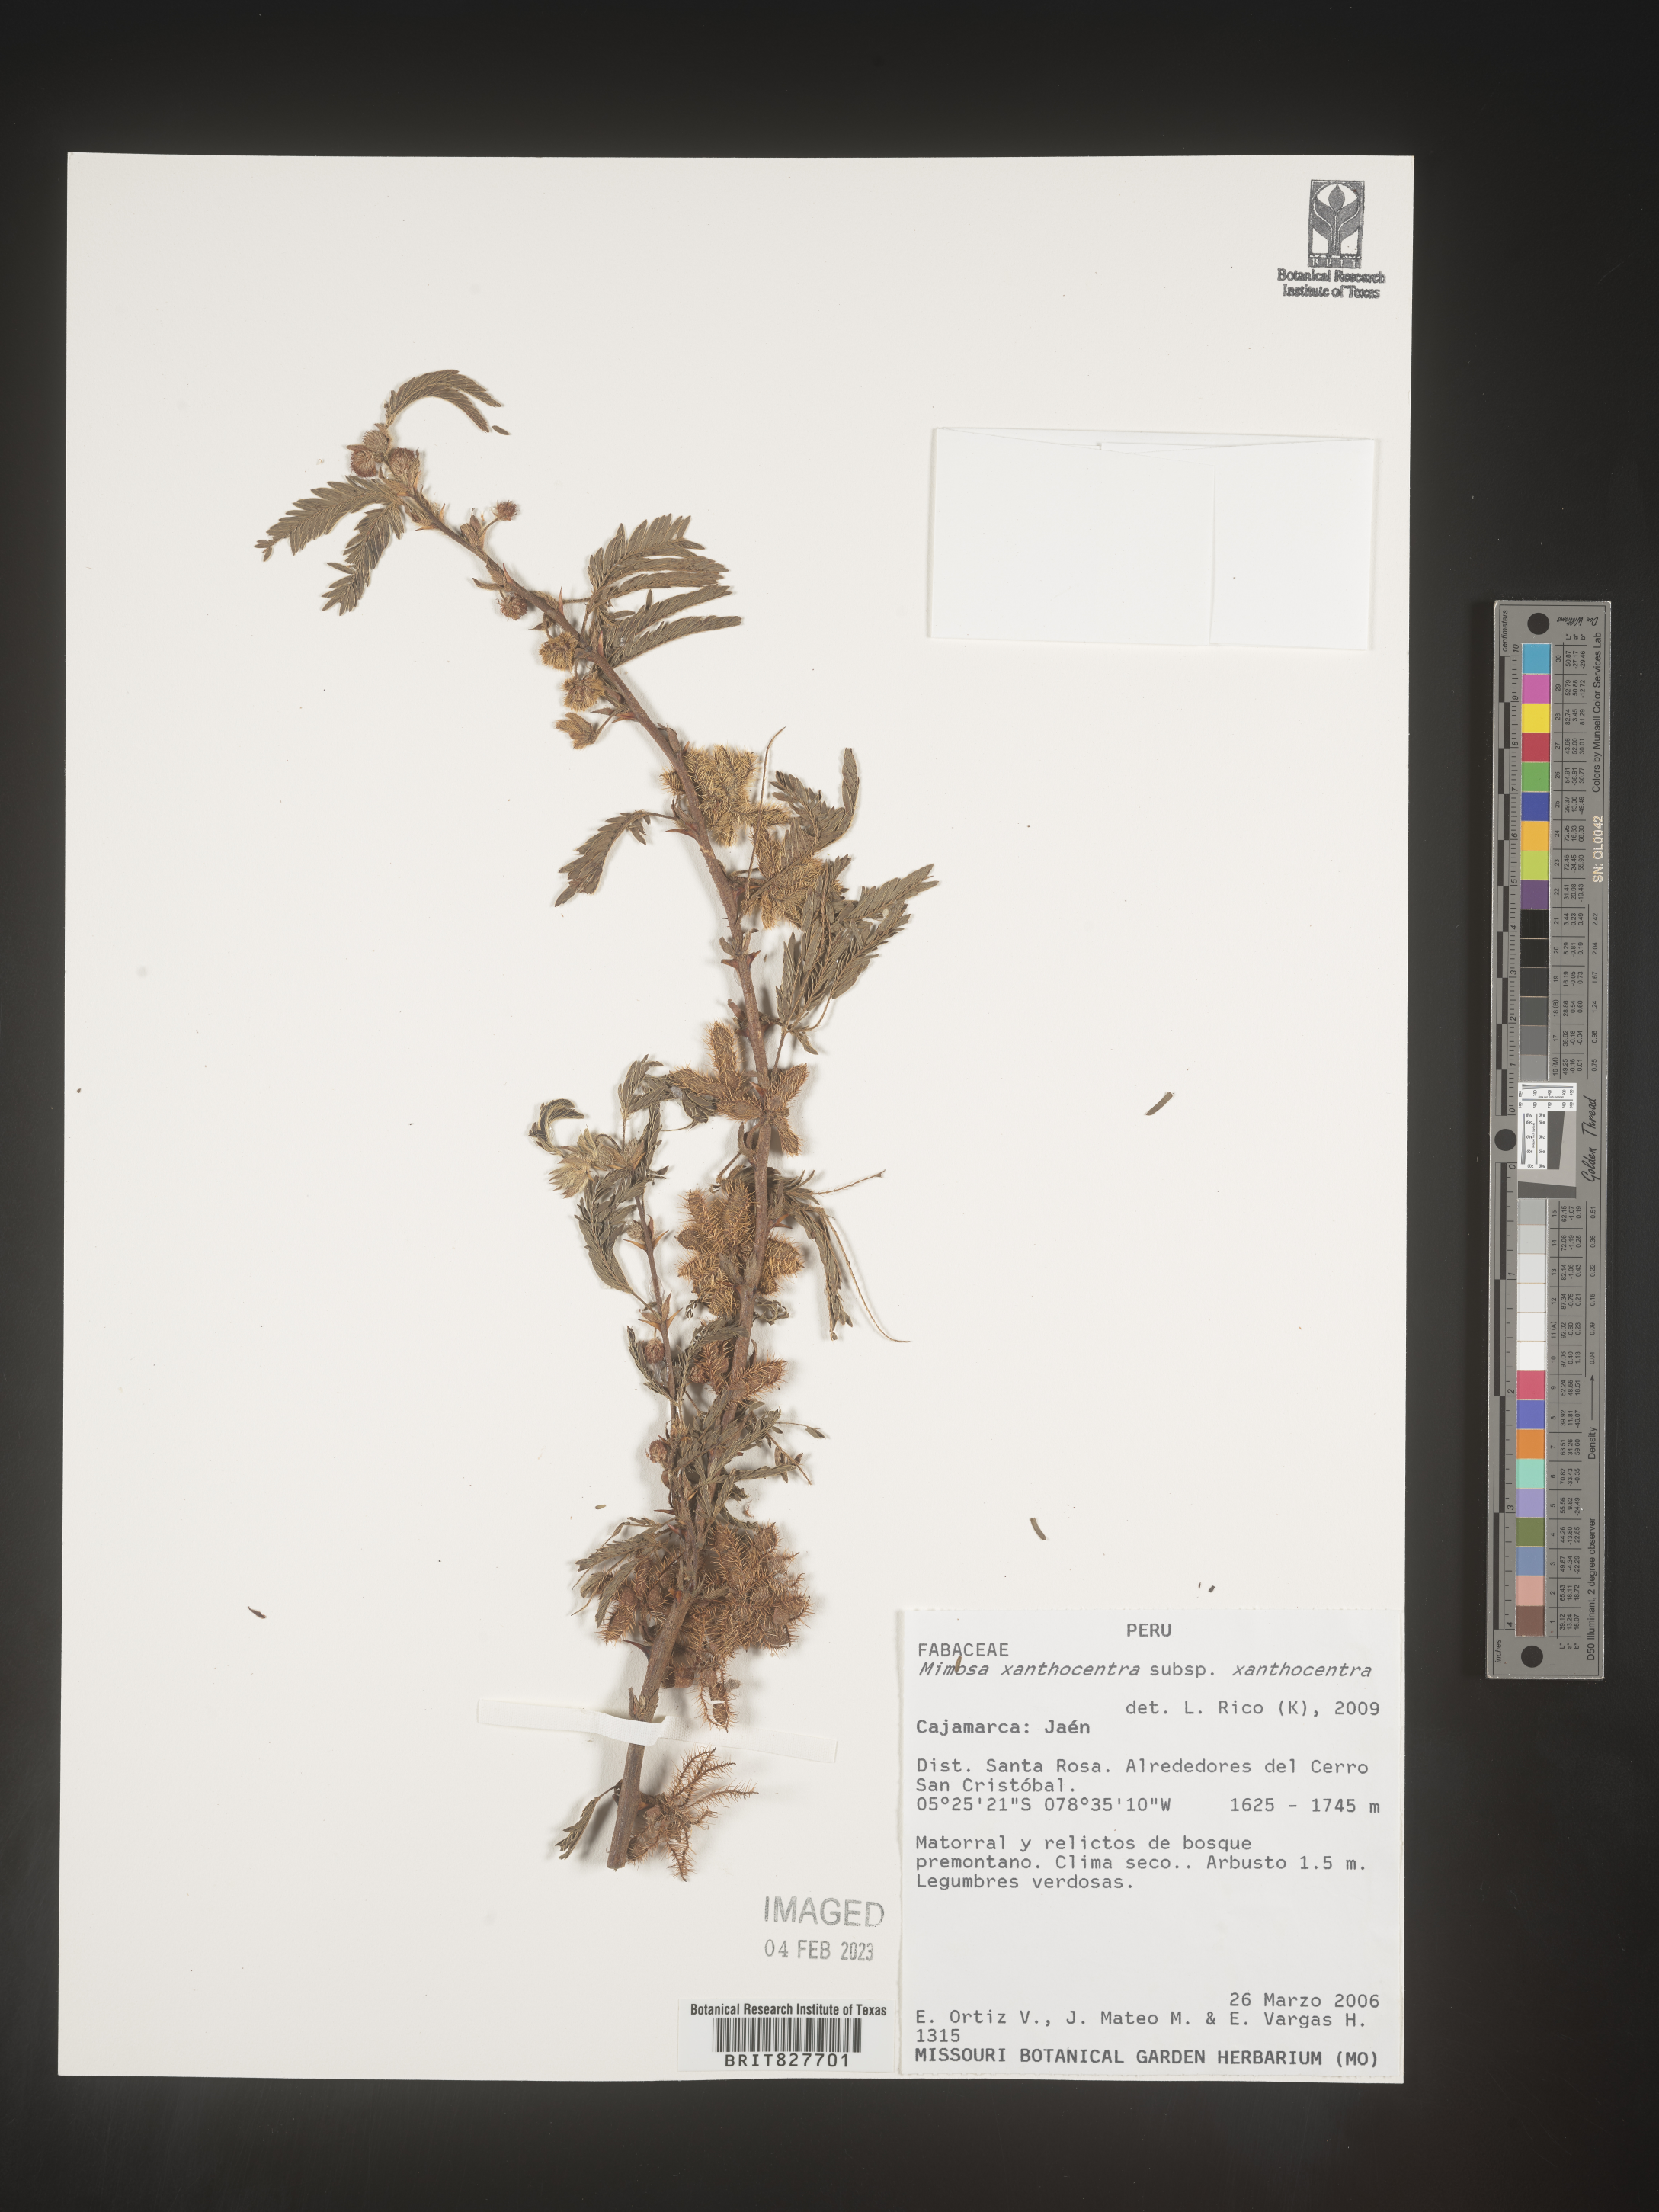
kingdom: Plantae
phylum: Tracheophyta
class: Magnoliopsida
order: Fabales
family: Fabaceae
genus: Mimosa
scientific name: Mimosa
